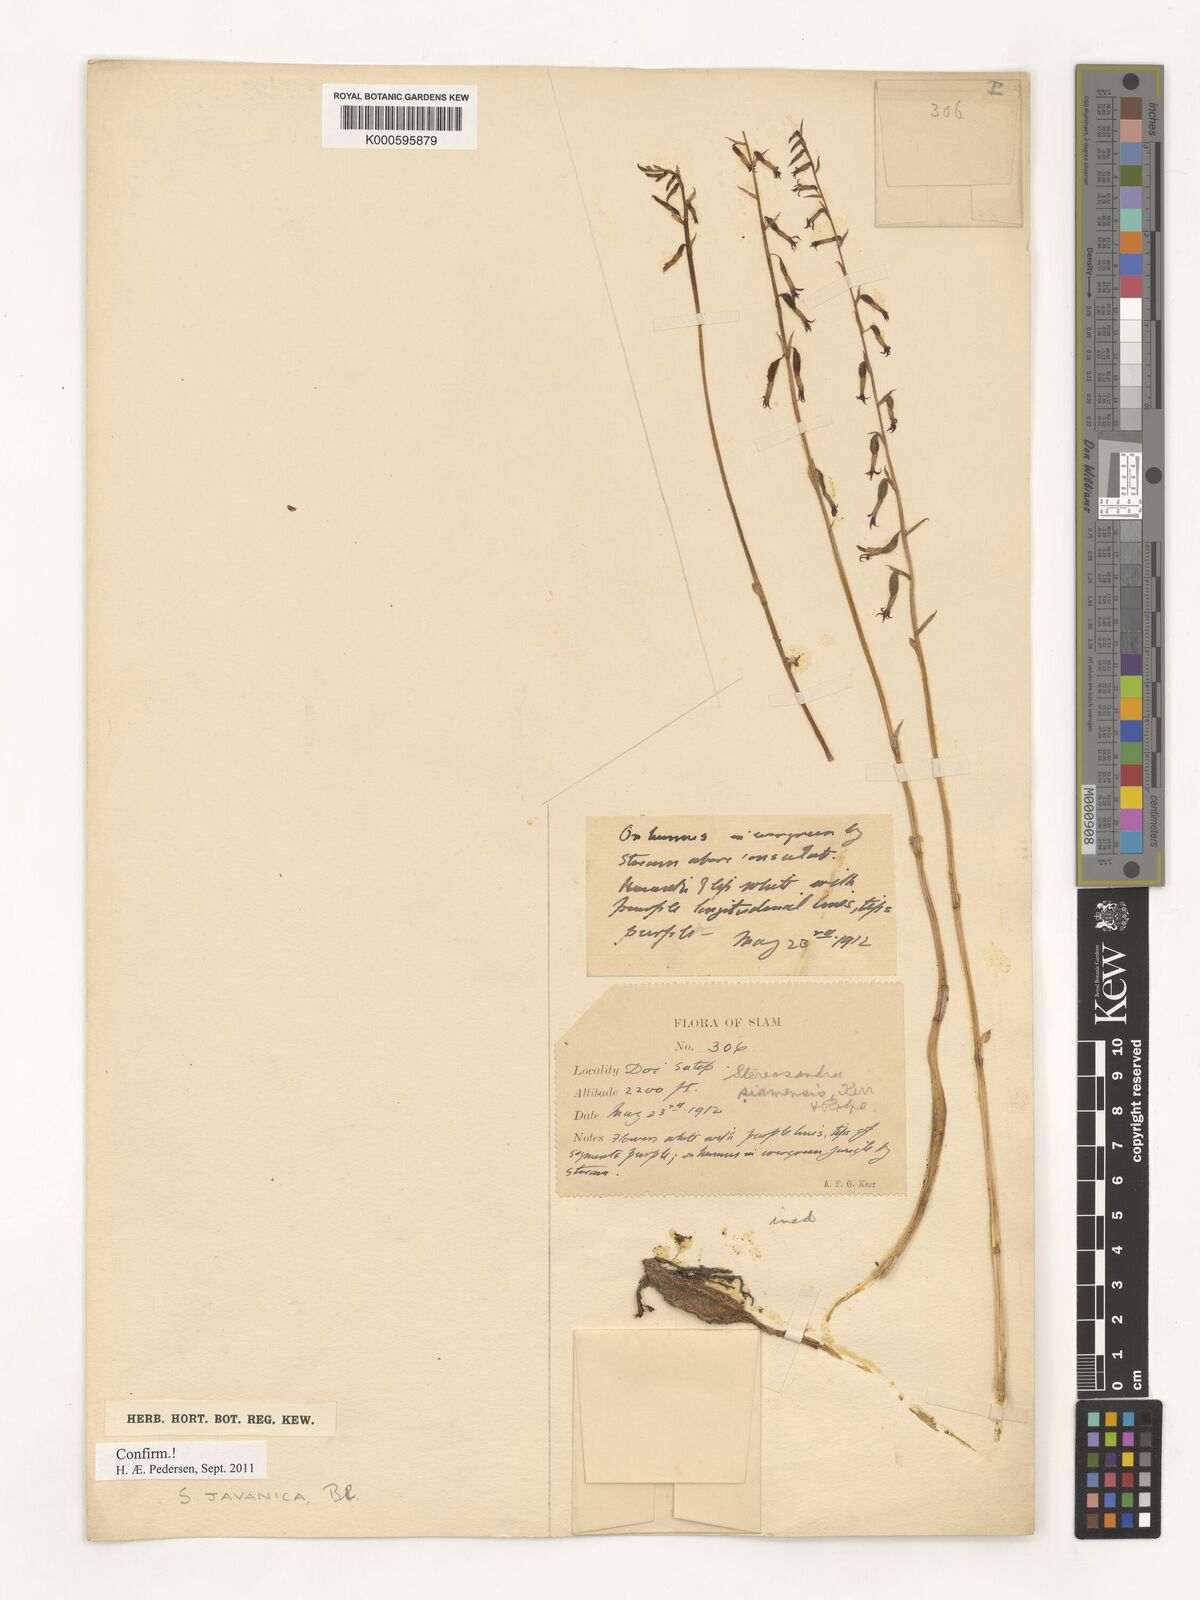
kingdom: Plantae
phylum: Tracheophyta
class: Liliopsida
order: Asparagales
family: Orchidaceae
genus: Stereosandra
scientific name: Stereosandra javanica
